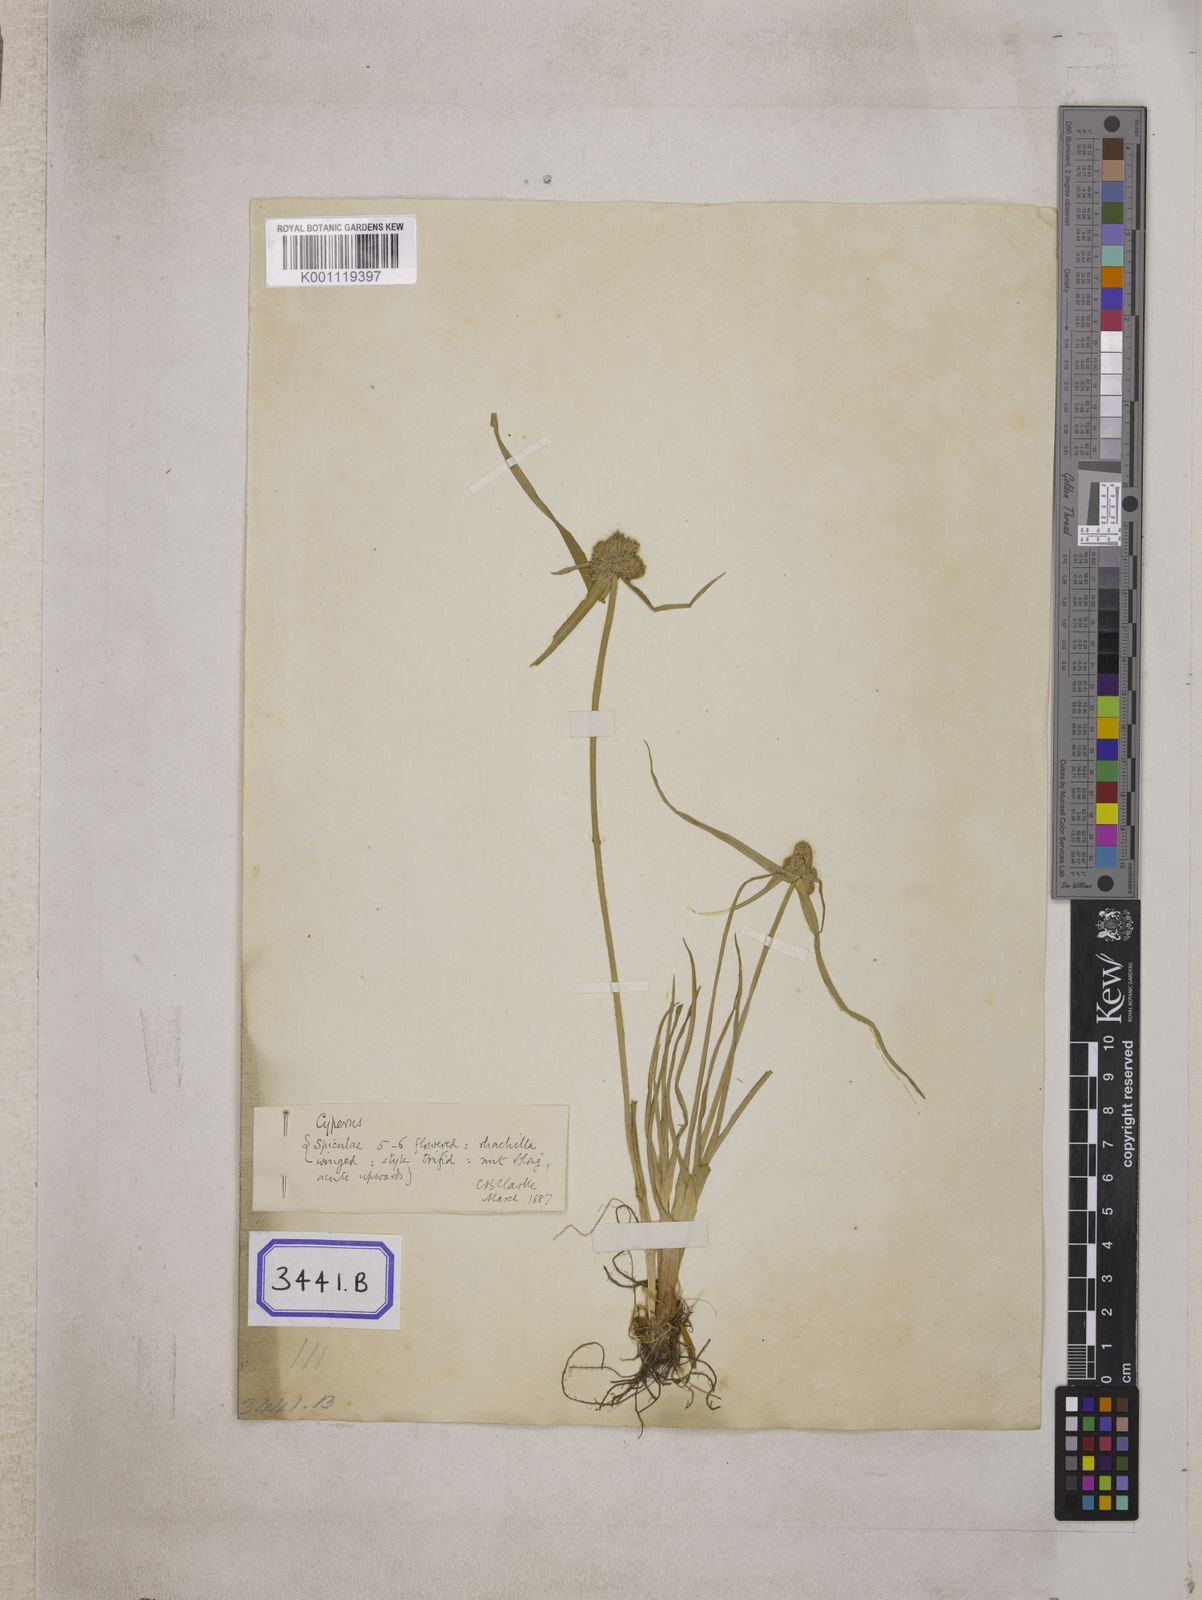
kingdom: Plantae
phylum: Tracheophyta
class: Liliopsida
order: Poales
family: Cyperaceae
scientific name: Cyperaceae
